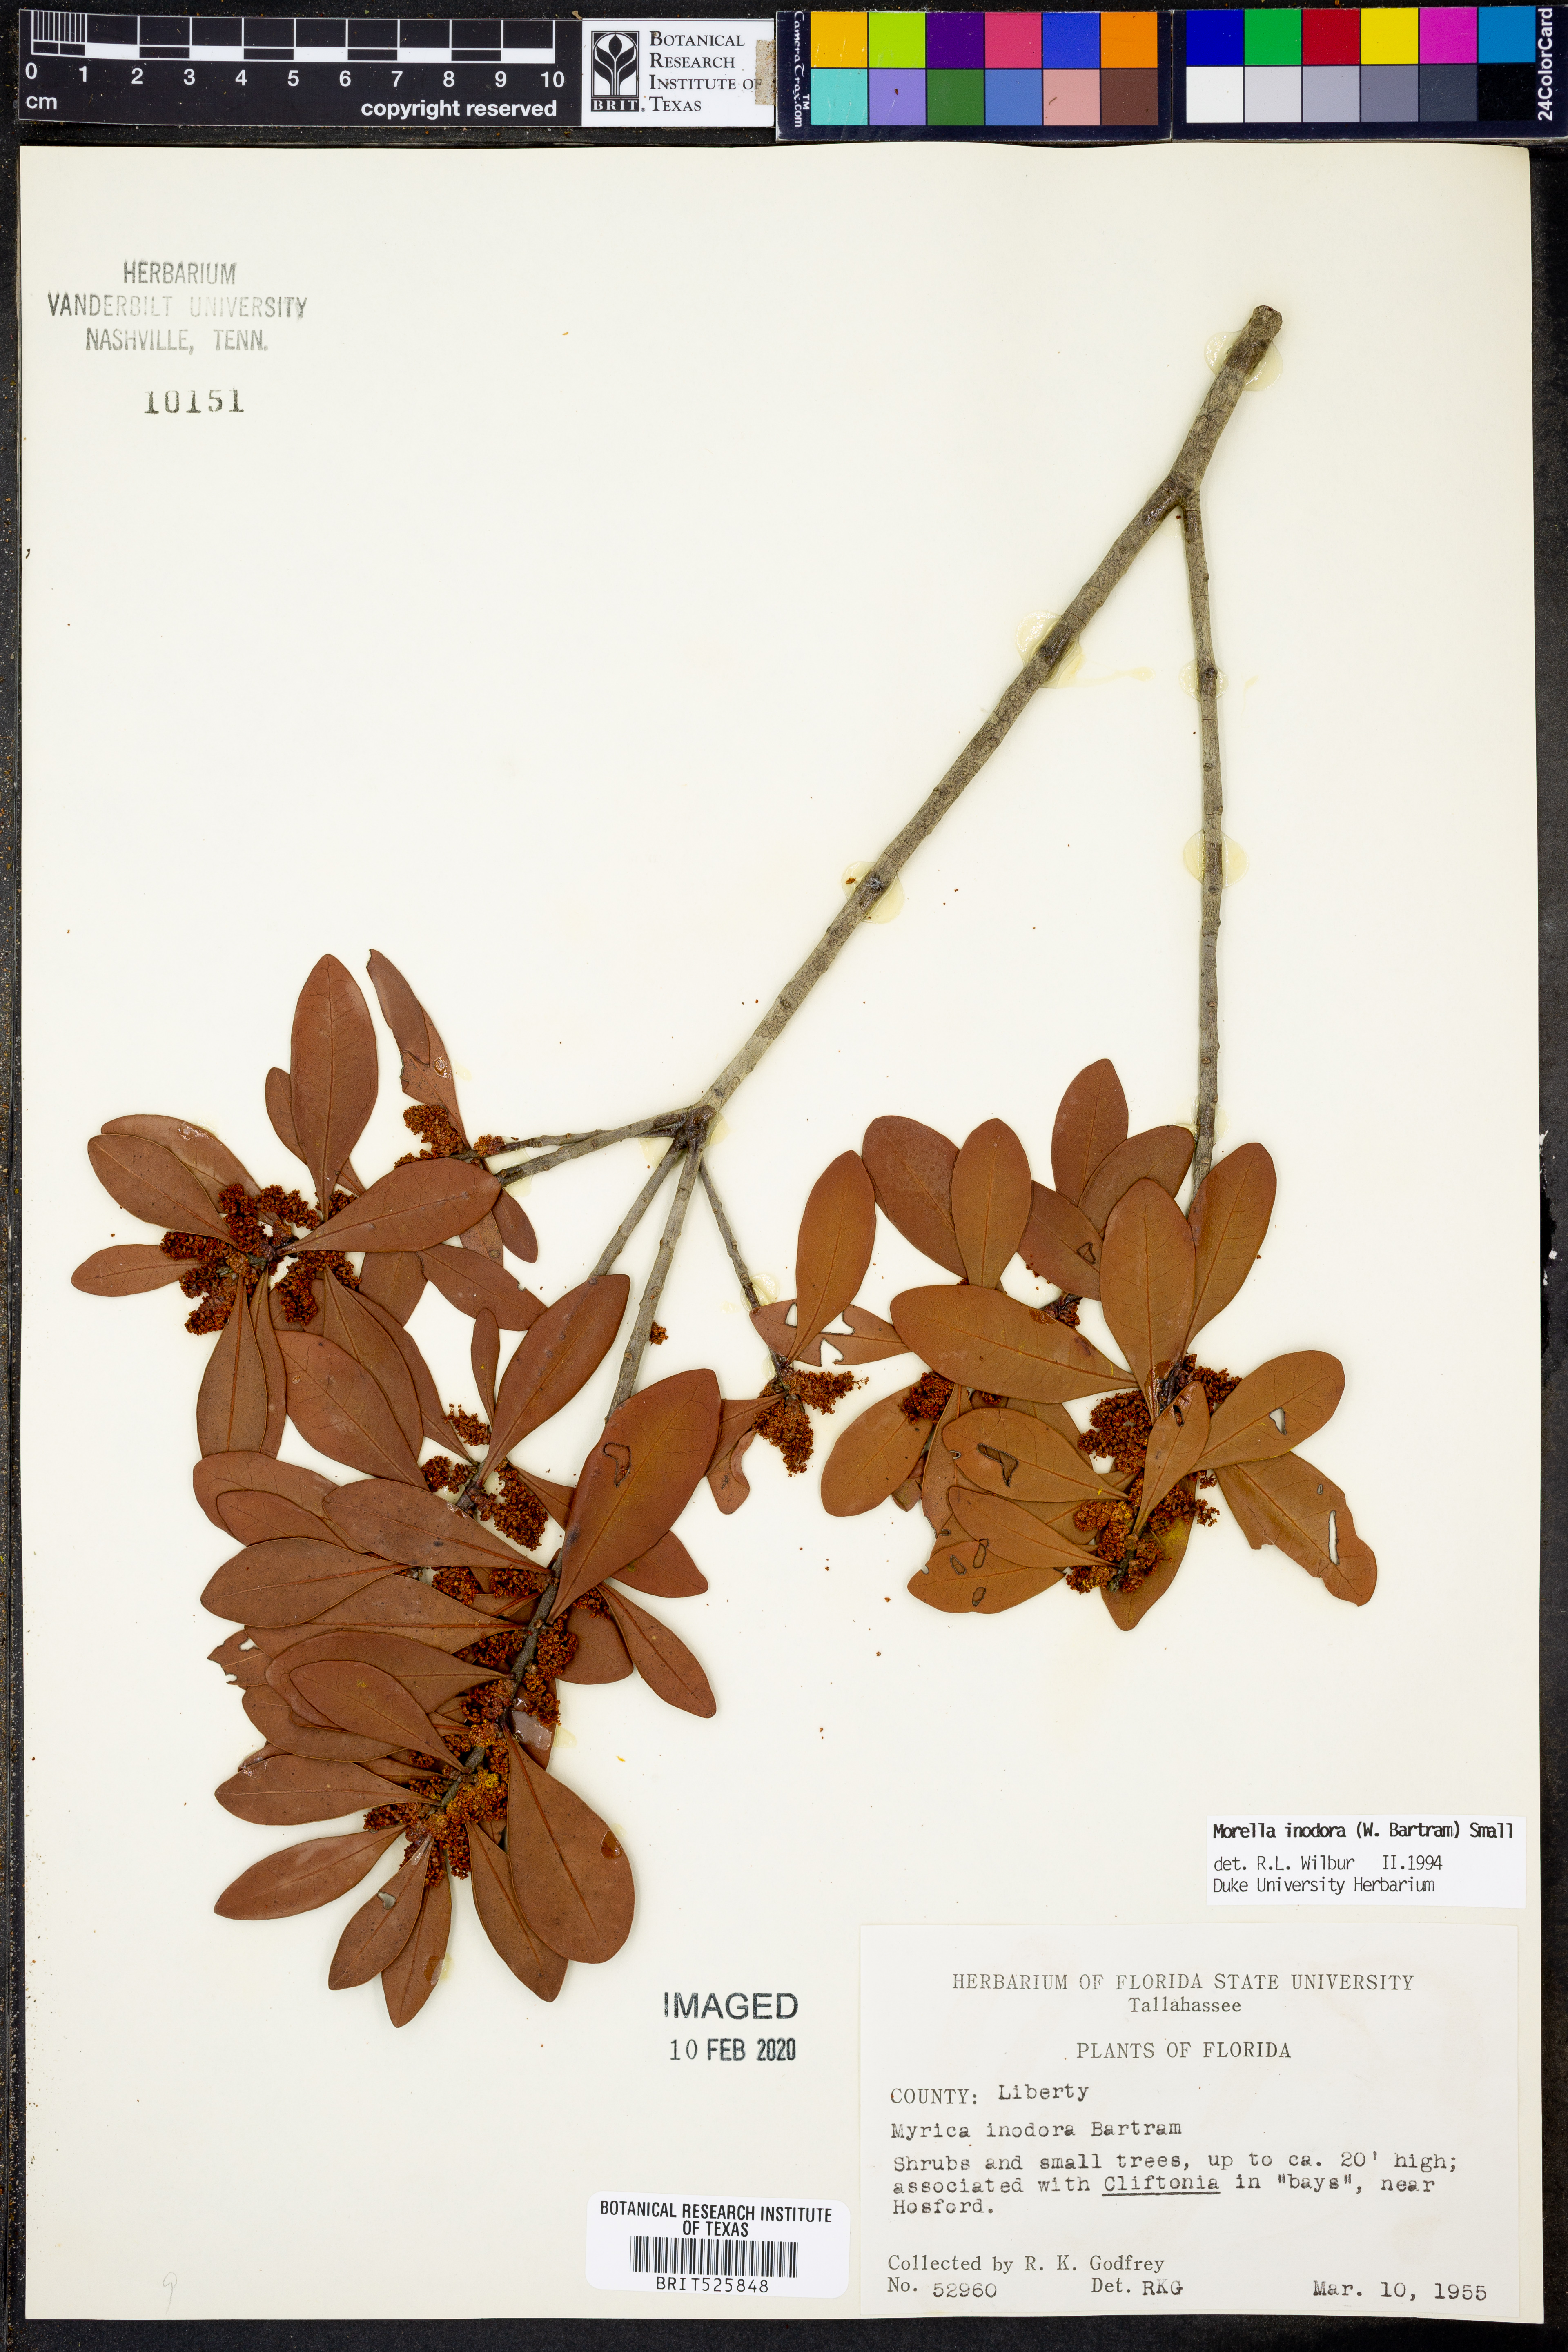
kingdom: Plantae
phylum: Tracheophyta
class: Magnoliopsida
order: Fagales
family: Myricaceae
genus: Morella
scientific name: Morella inodora
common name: Candle-berry
